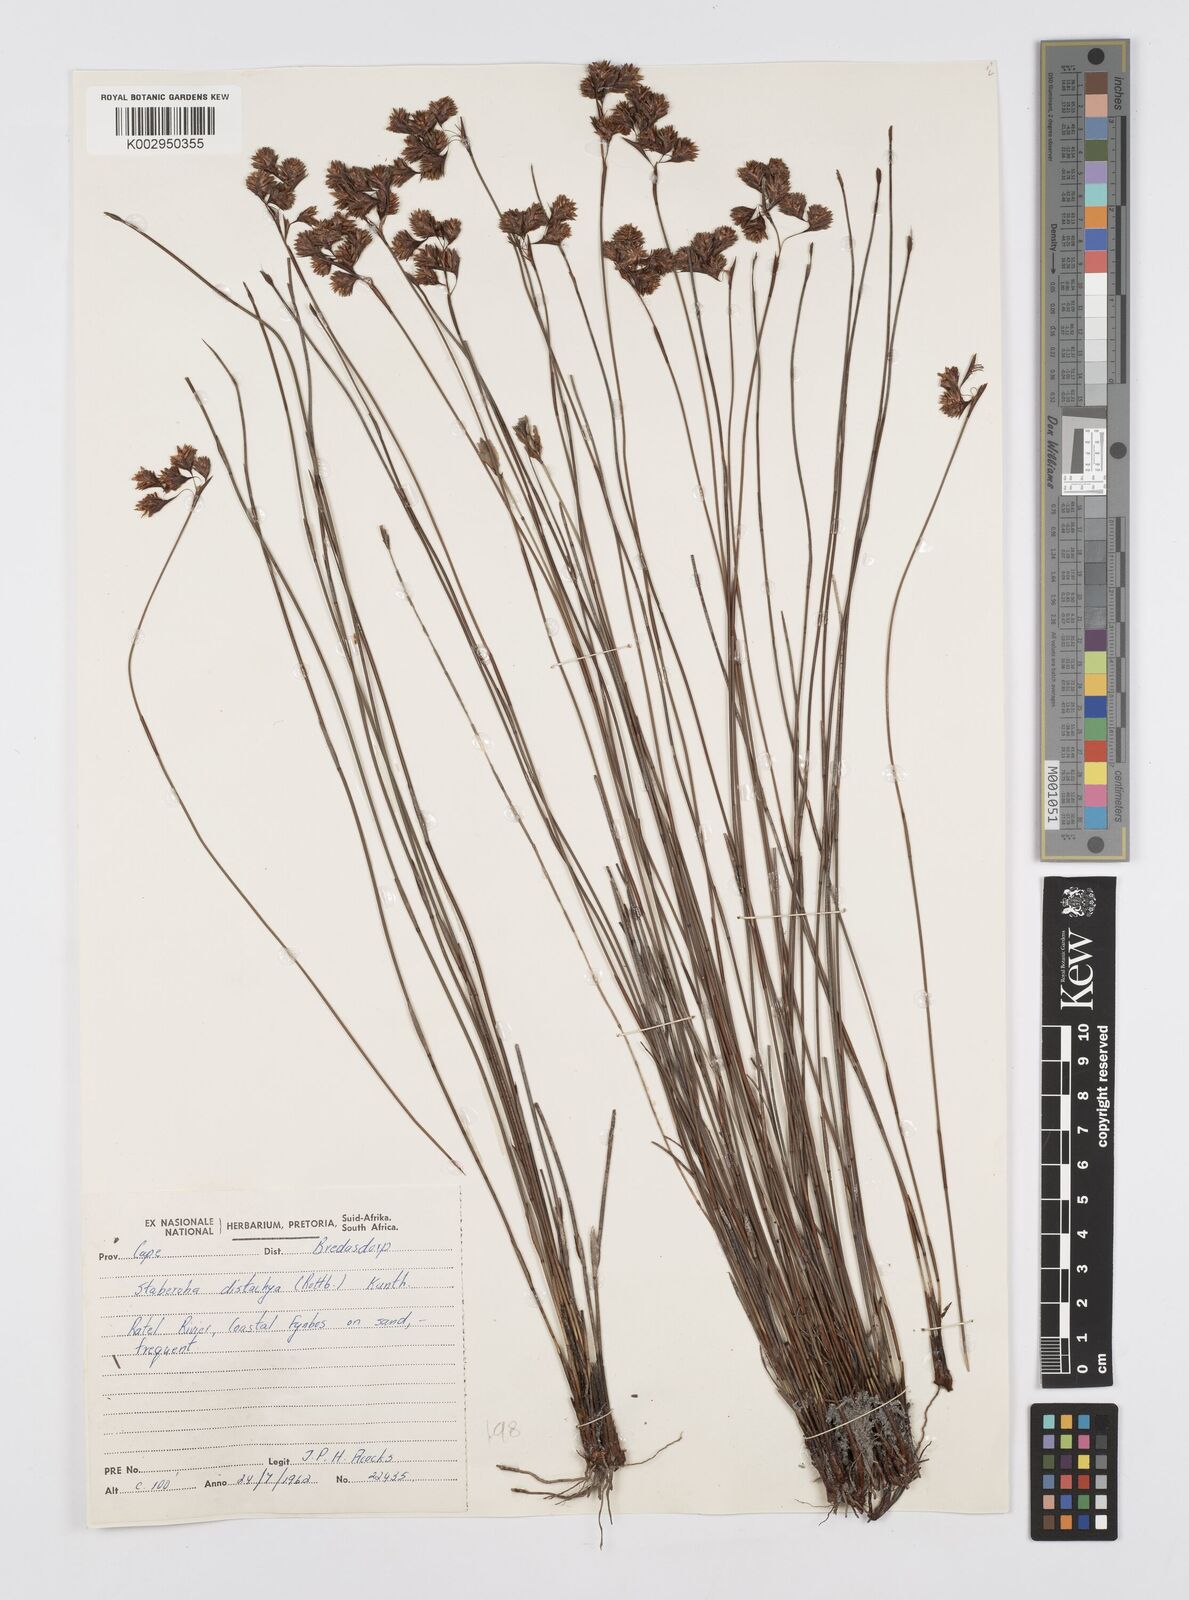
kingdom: Plantae
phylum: Tracheophyta
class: Liliopsida
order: Poales
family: Restionaceae
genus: Staberoha
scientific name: Staberoha distachyos
